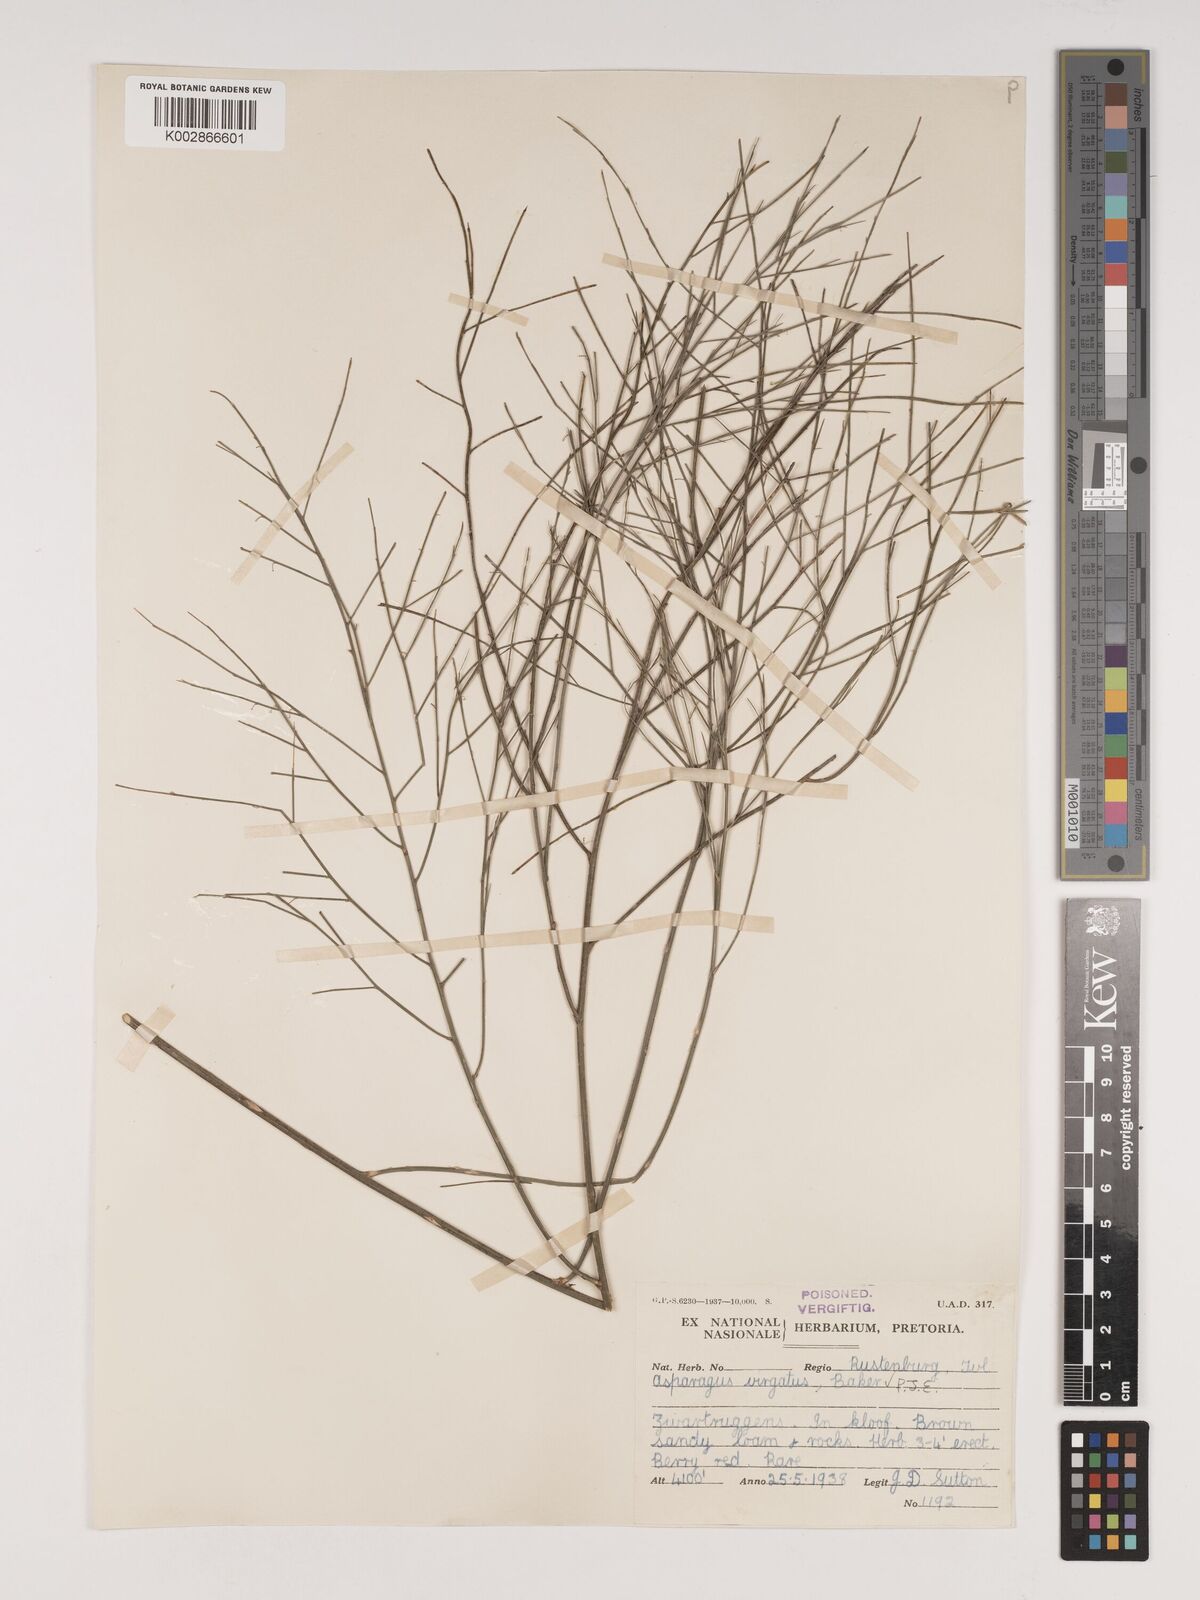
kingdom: Plantae
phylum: Tracheophyta
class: Liliopsida
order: Asparagales
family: Asparagaceae
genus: Asparagus
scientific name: Asparagus virgatus
